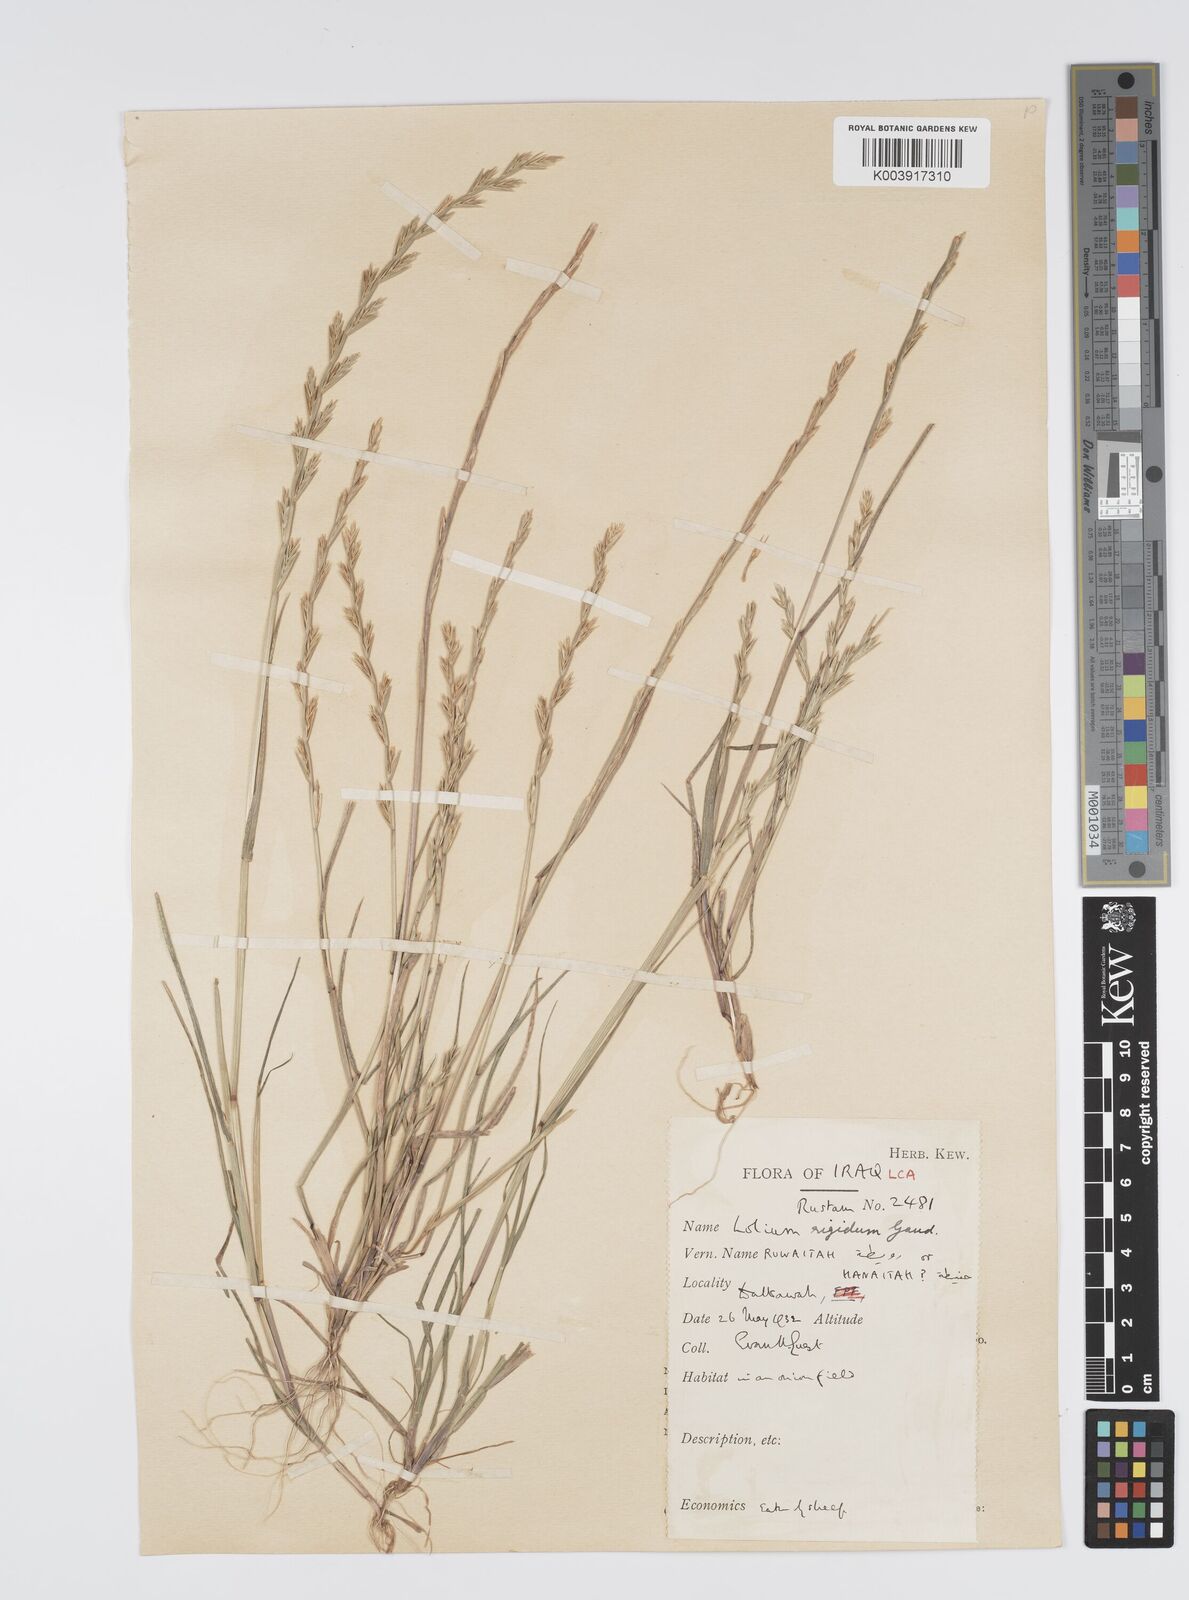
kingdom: Plantae
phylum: Tracheophyta
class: Liliopsida
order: Poales
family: Poaceae
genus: Lolium
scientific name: Lolium rigidum
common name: Wimmera ryegrass
